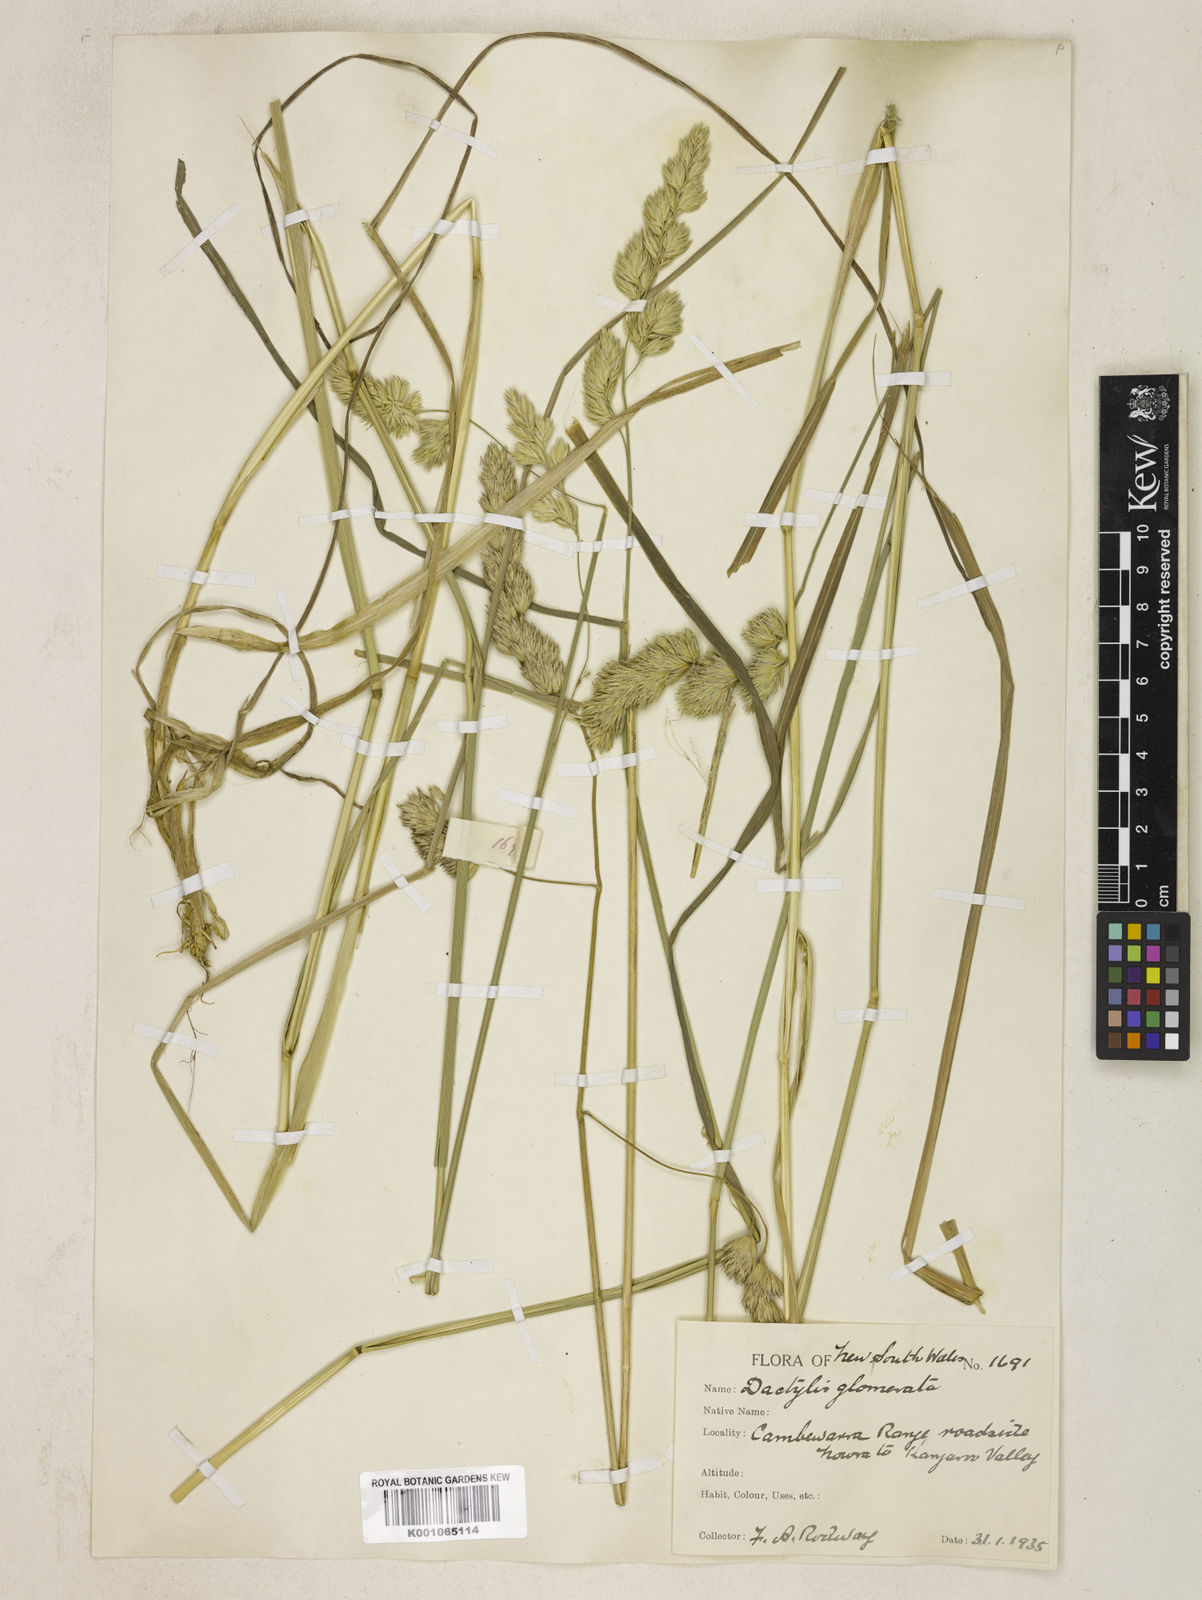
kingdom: Plantae
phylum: Tracheophyta
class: Liliopsida
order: Poales
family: Poaceae
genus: Dactylis
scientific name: Dactylis glomerata
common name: Orchardgrass
